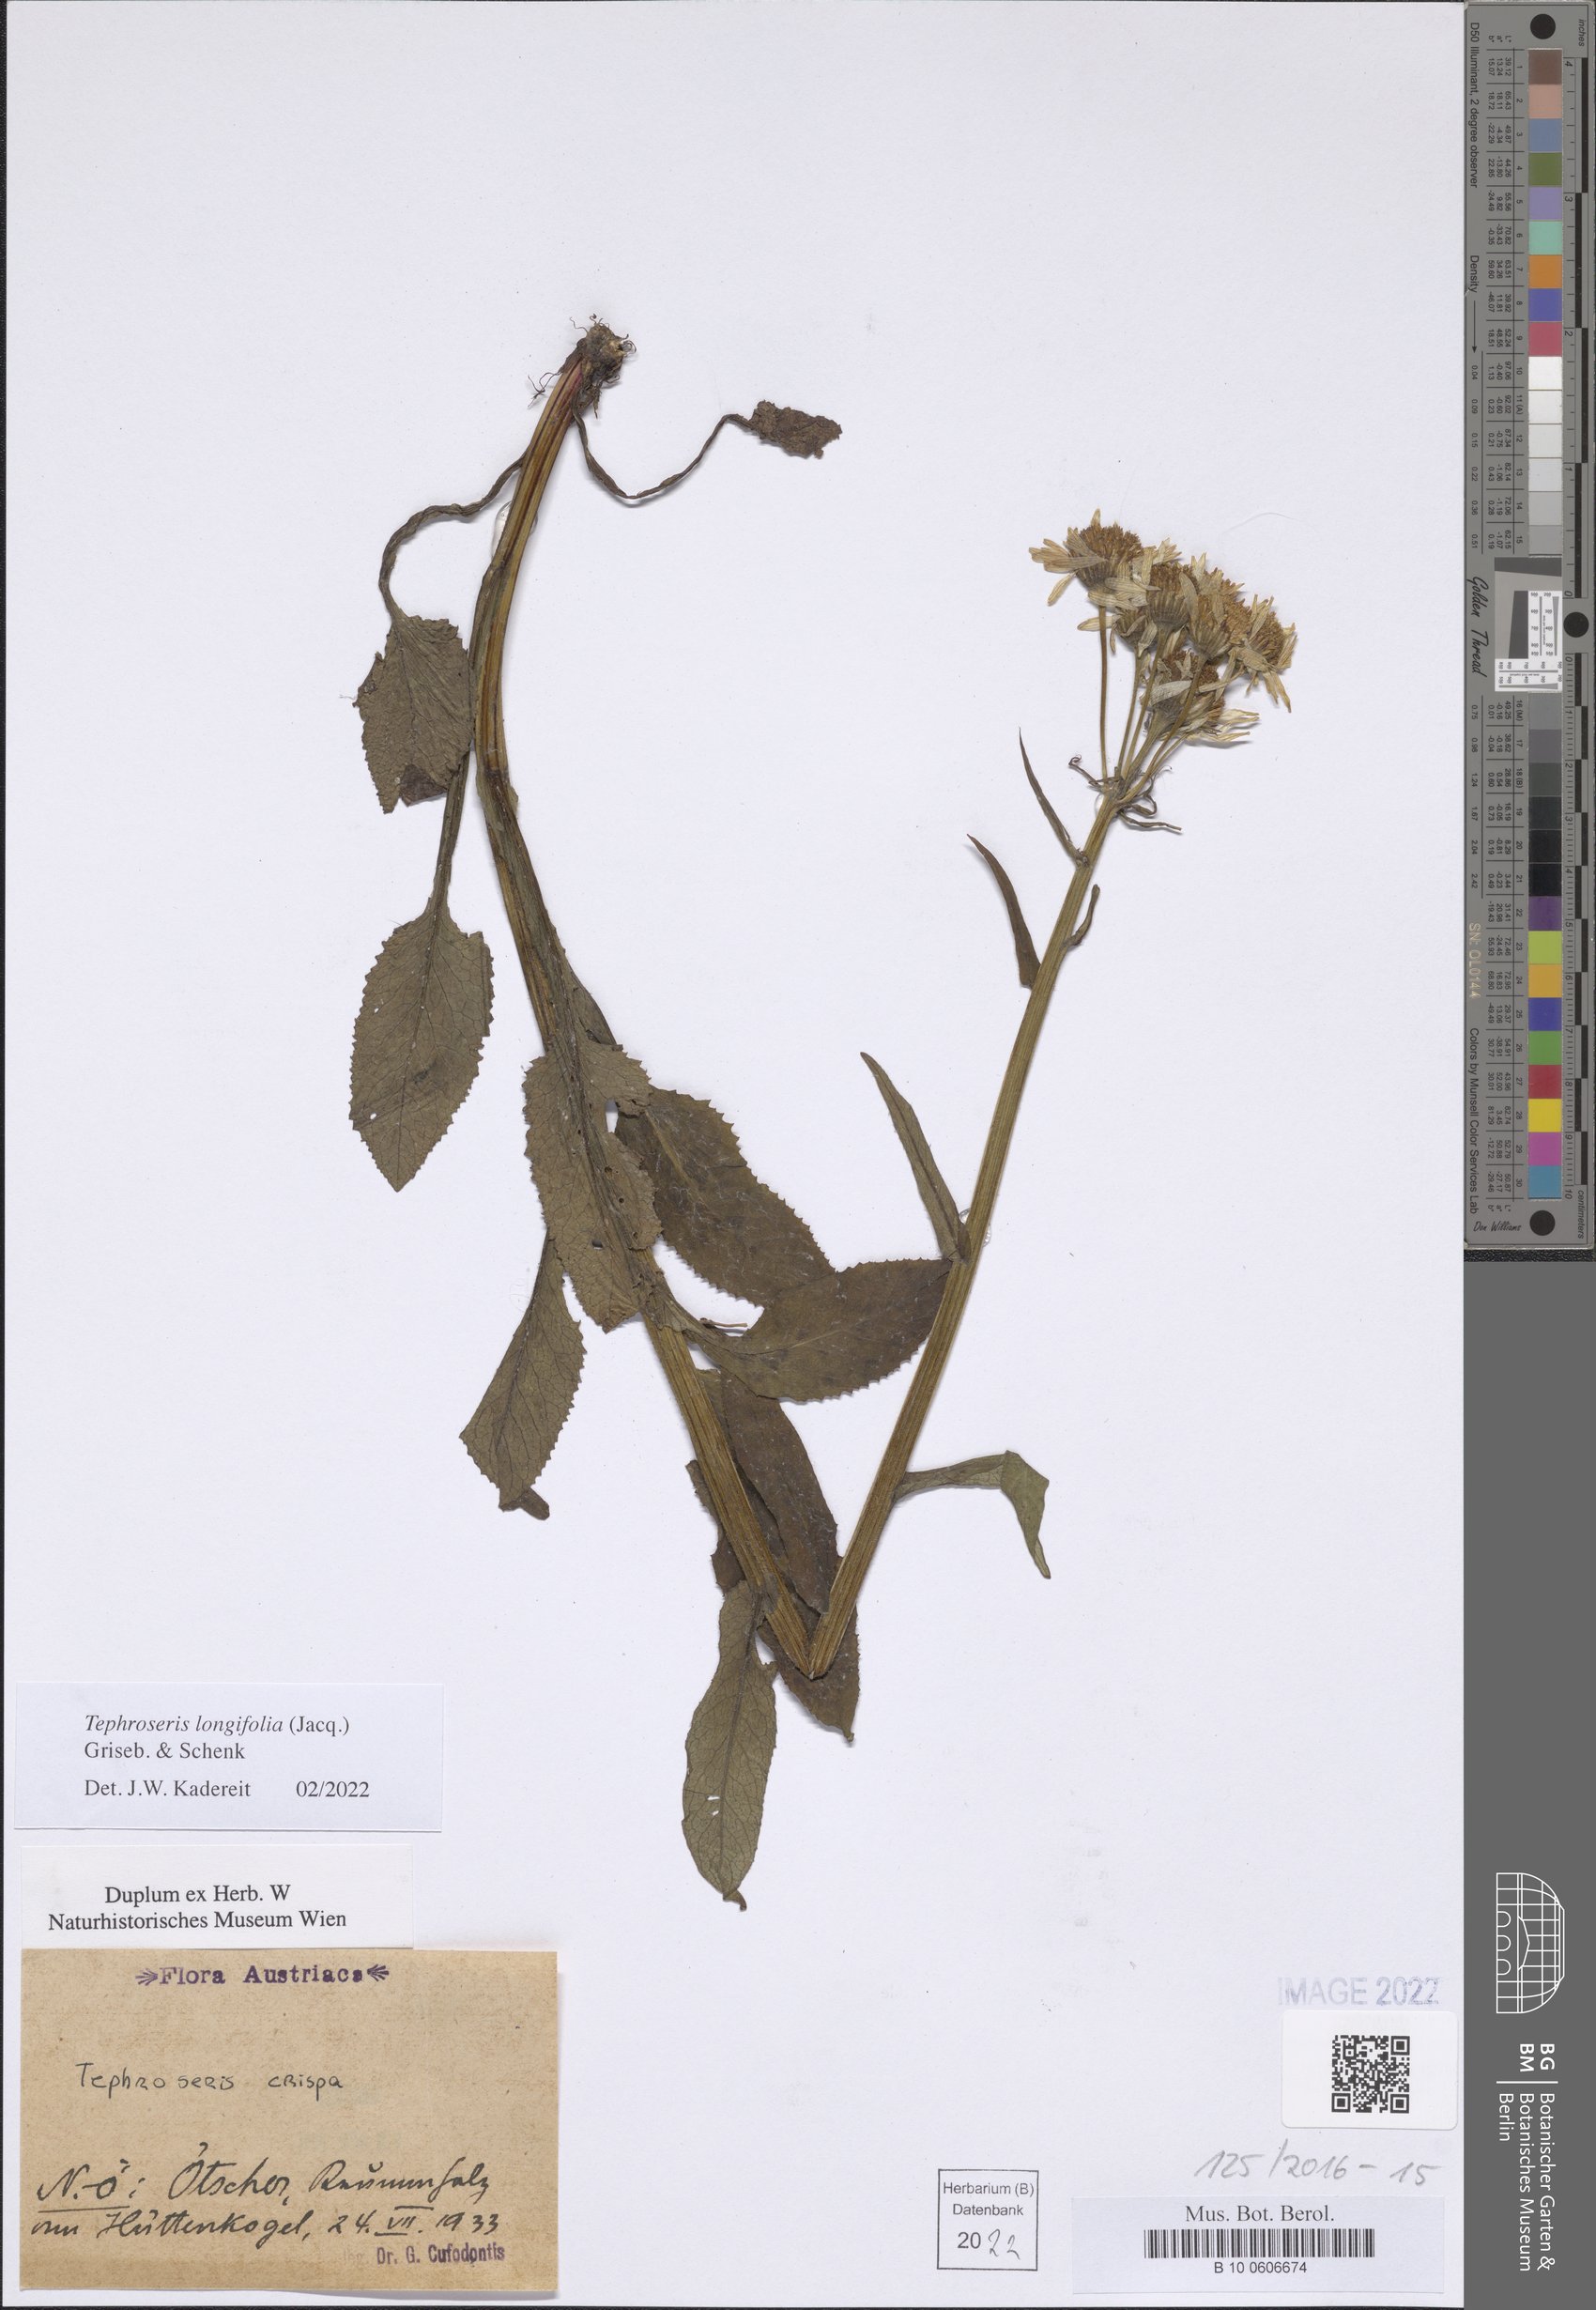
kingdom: Plantae
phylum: Tracheophyta
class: Magnoliopsida
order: Asterales
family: Asteraceae
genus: Tephroseris
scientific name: Tephroseris longifolia
